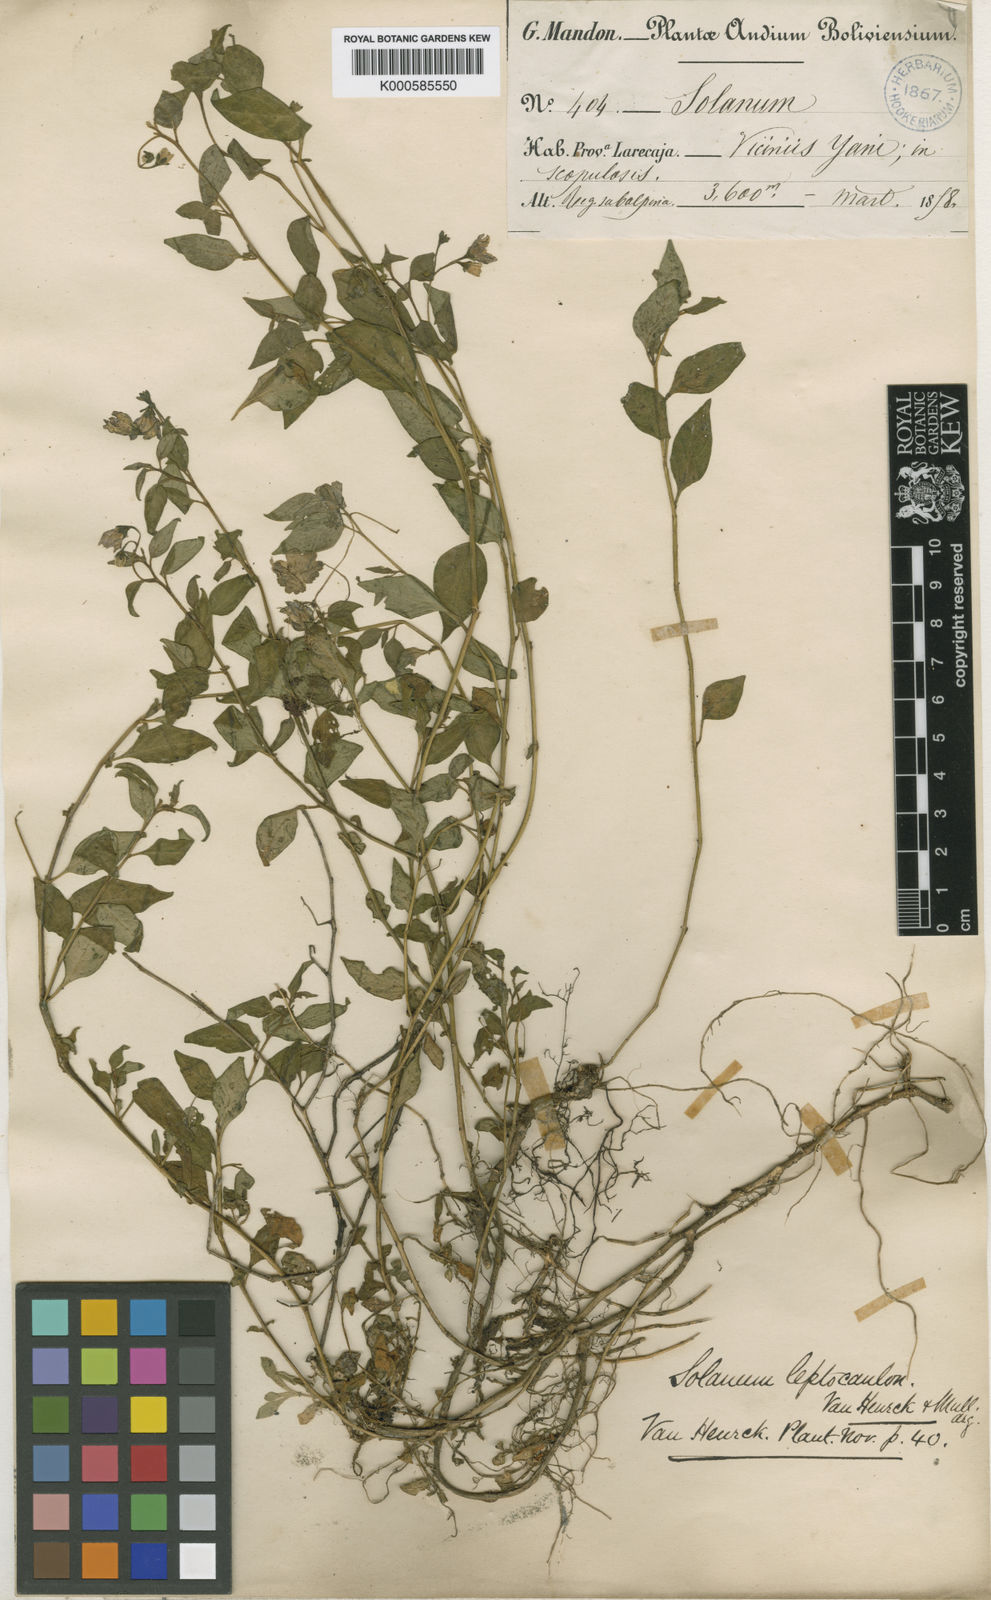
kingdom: Plantae
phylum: Tracheophyta
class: Magnoliopsida
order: Solanales
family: Solanaceae
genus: Solanum
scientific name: Solanum
